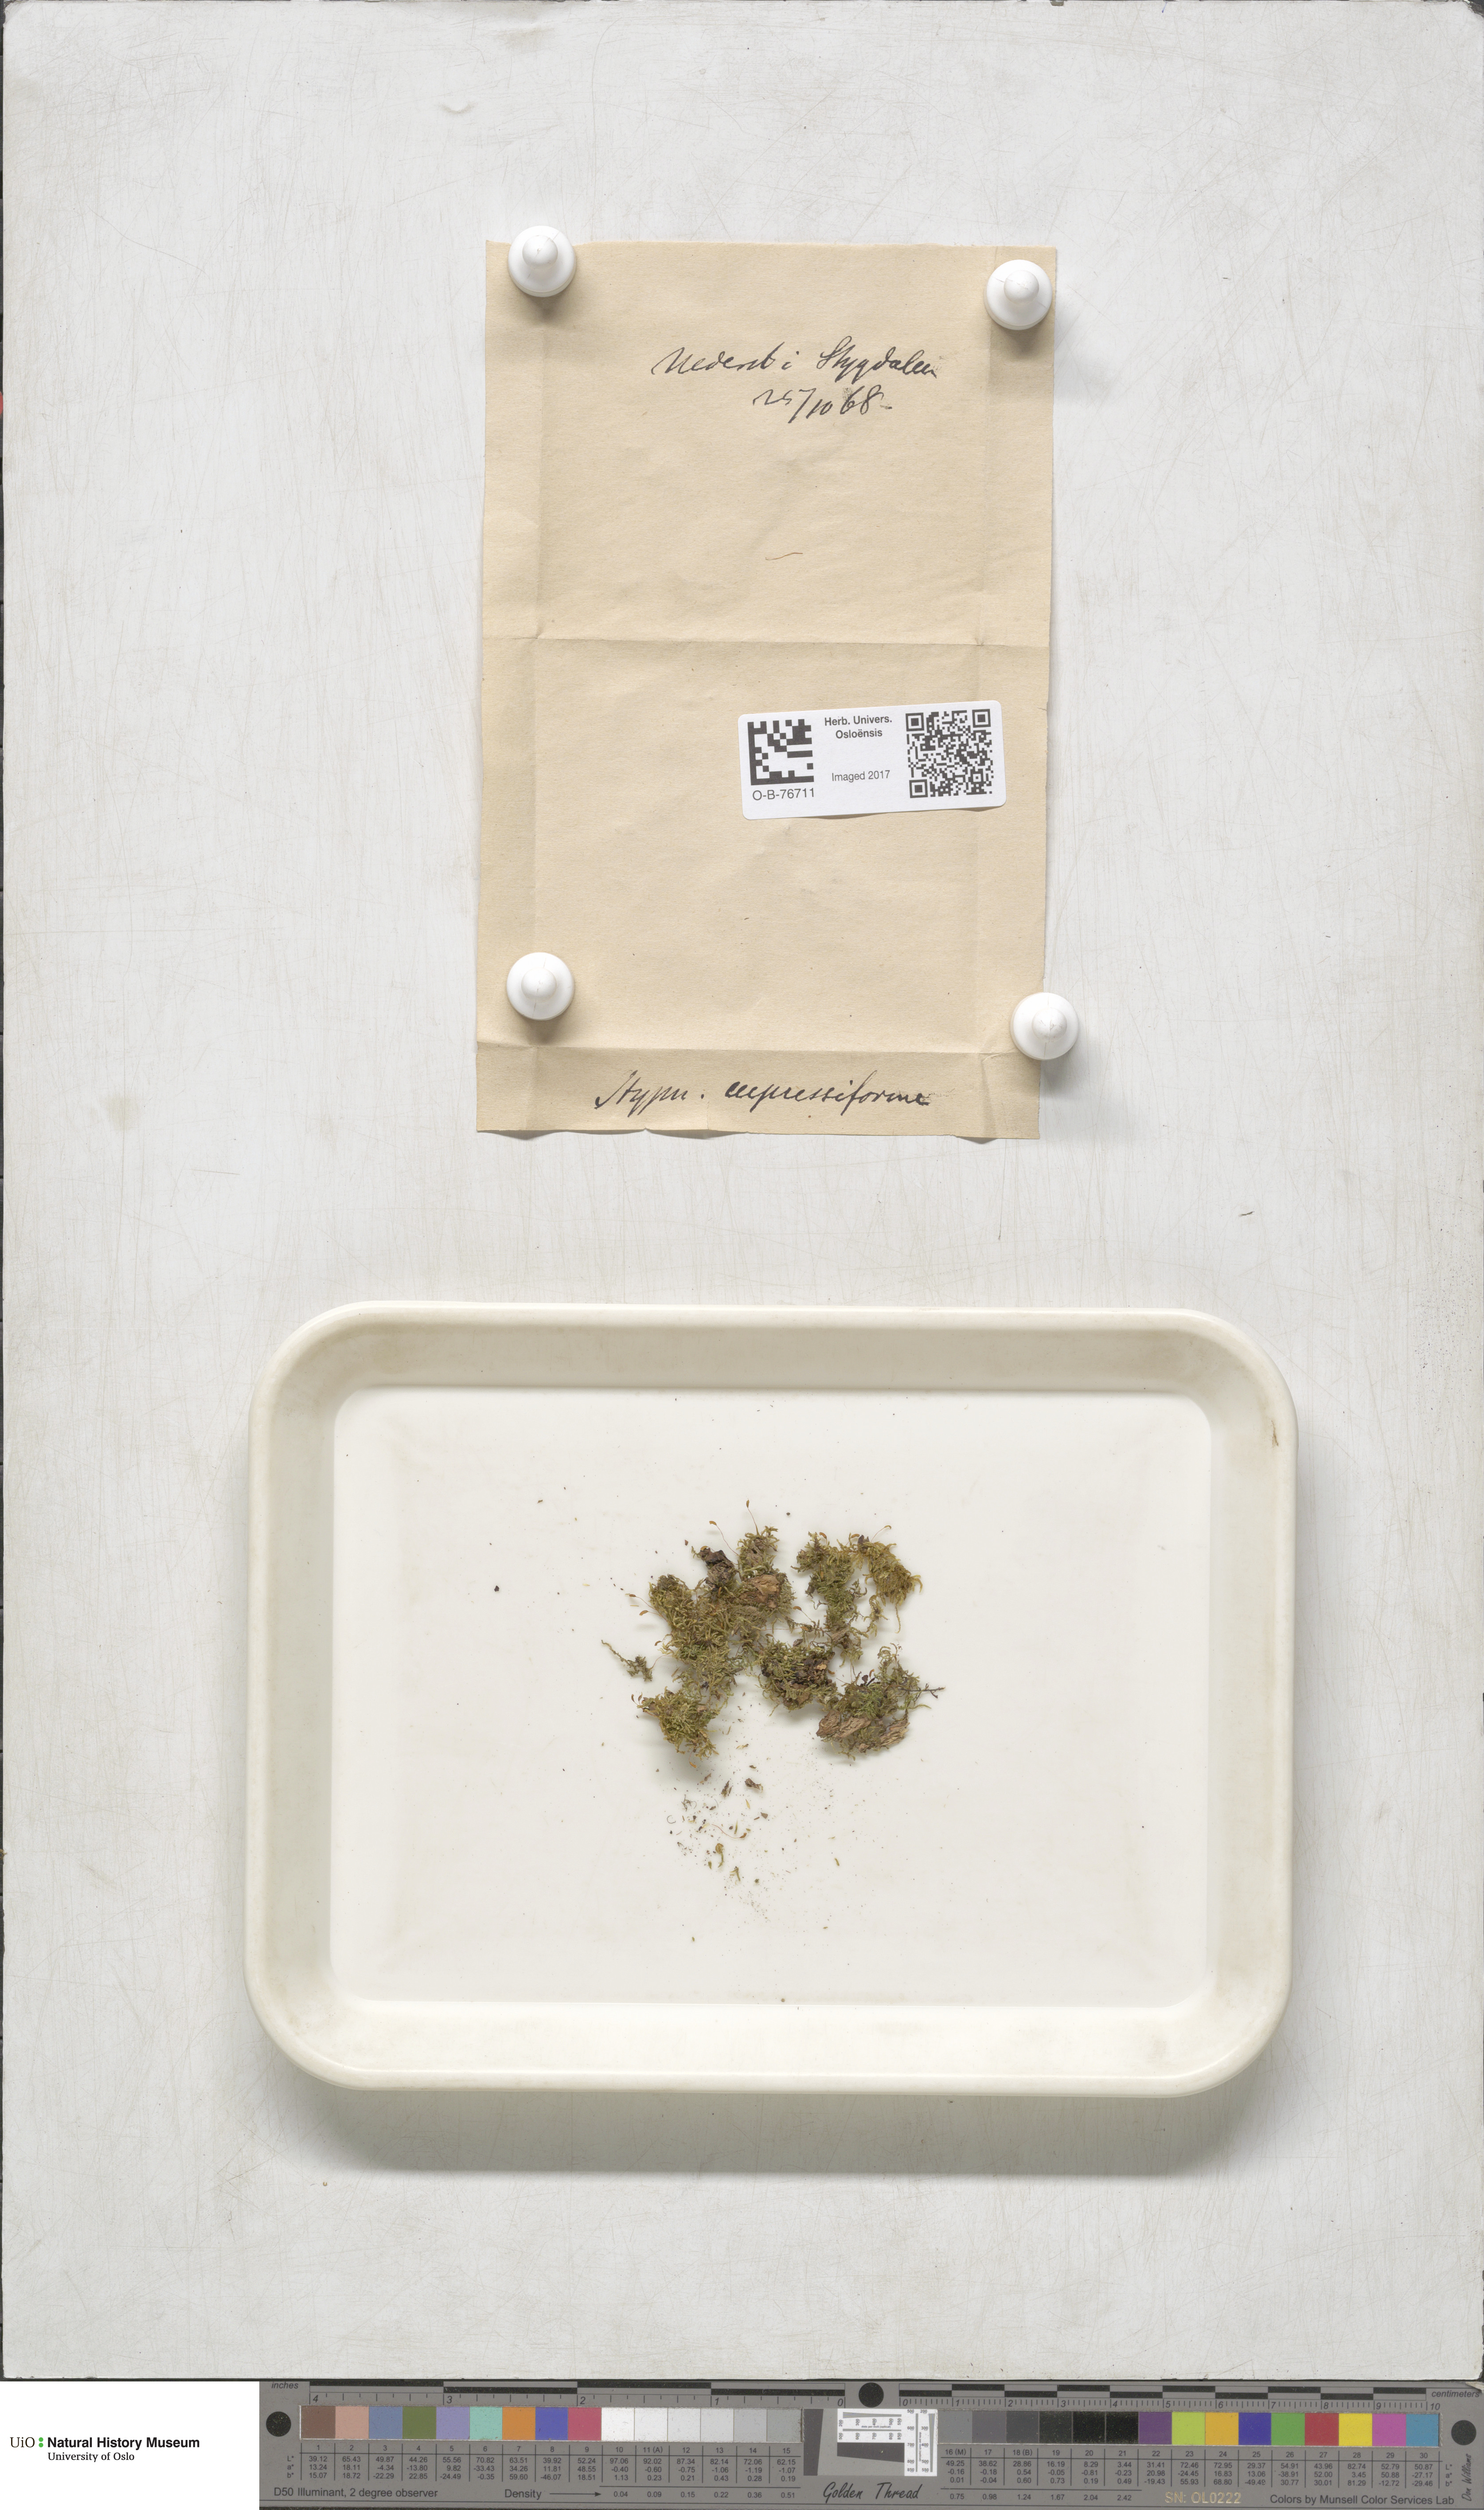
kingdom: Plantae
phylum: Bryophyta
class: Bryopsida
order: Hypnales
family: Hypnaceae
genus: Hypnum
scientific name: Hypnum cupressiforme
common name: Cypress-leaved plait-moss
